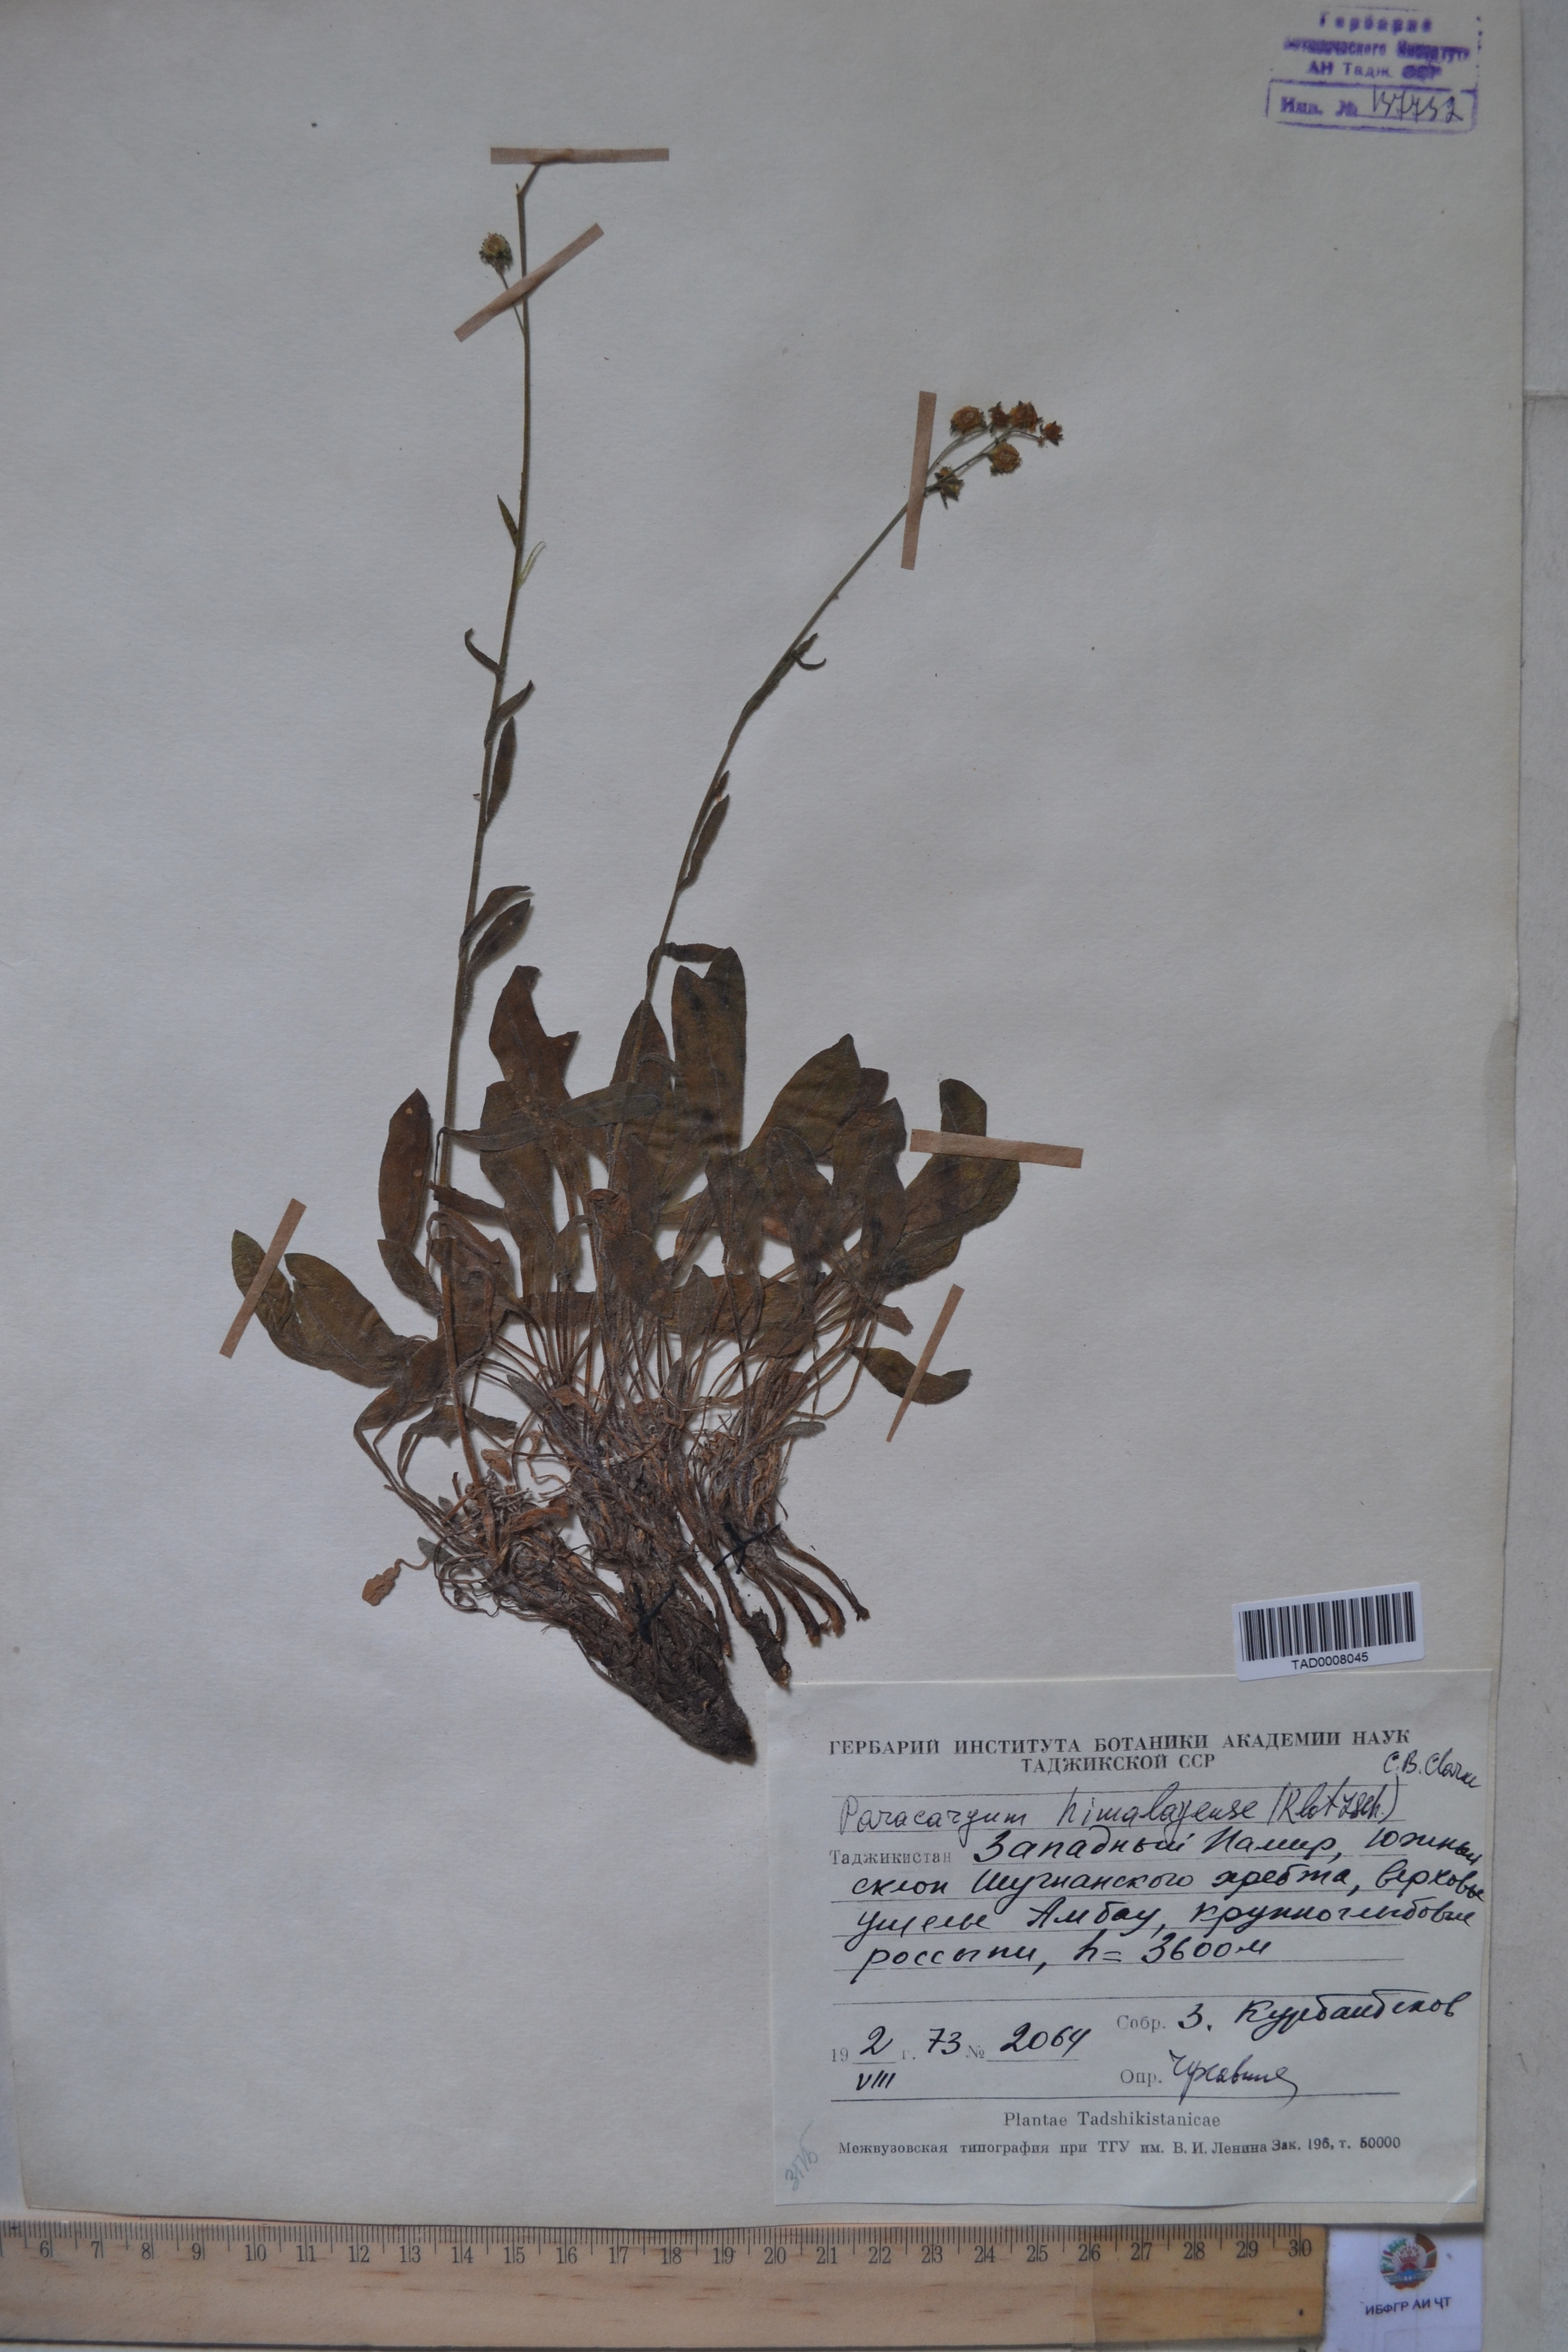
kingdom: Plantae
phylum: Tracheophyta
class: Magnoliopsida
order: Boraginales
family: Boraginaceae
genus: Paracaryum
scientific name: Paracaryum himalayense
